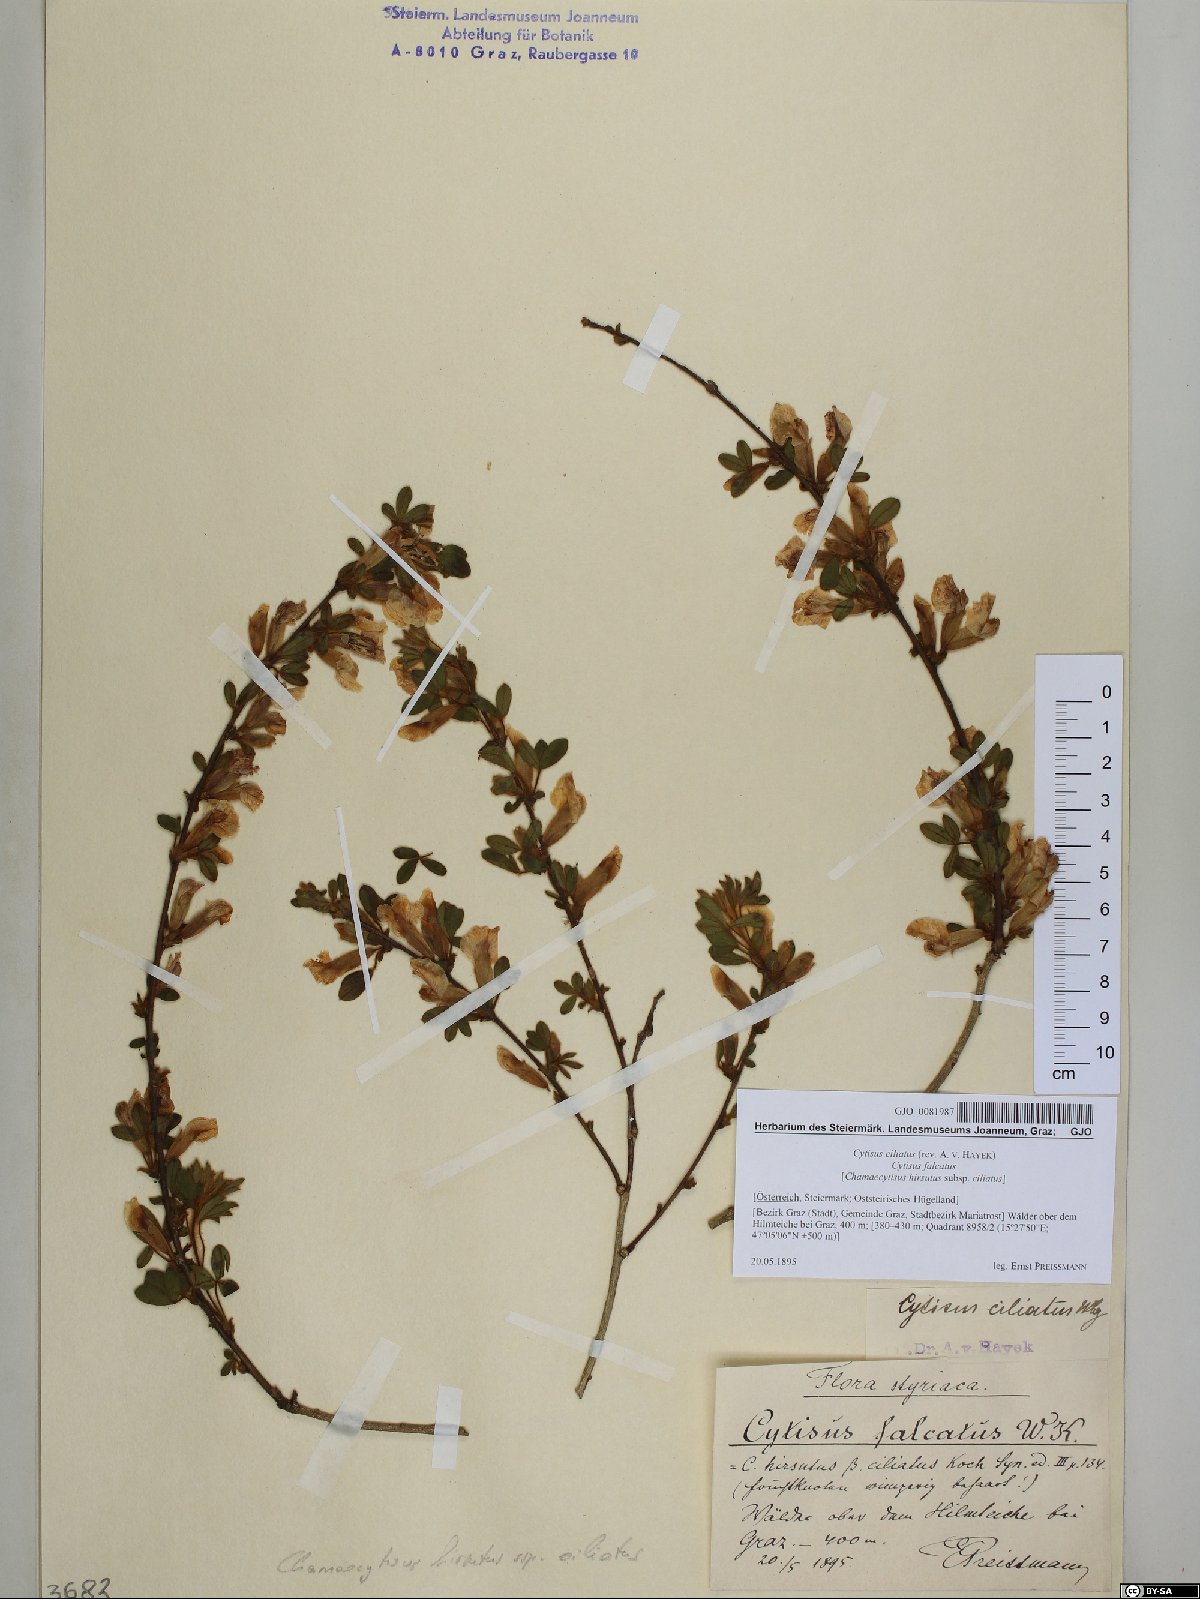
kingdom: Plantae
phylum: Tracheophyta
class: Magnoliopsida
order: Fabales
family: Fabaceae
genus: Chamaecytisus
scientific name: Chamaecytisus hirsutus
